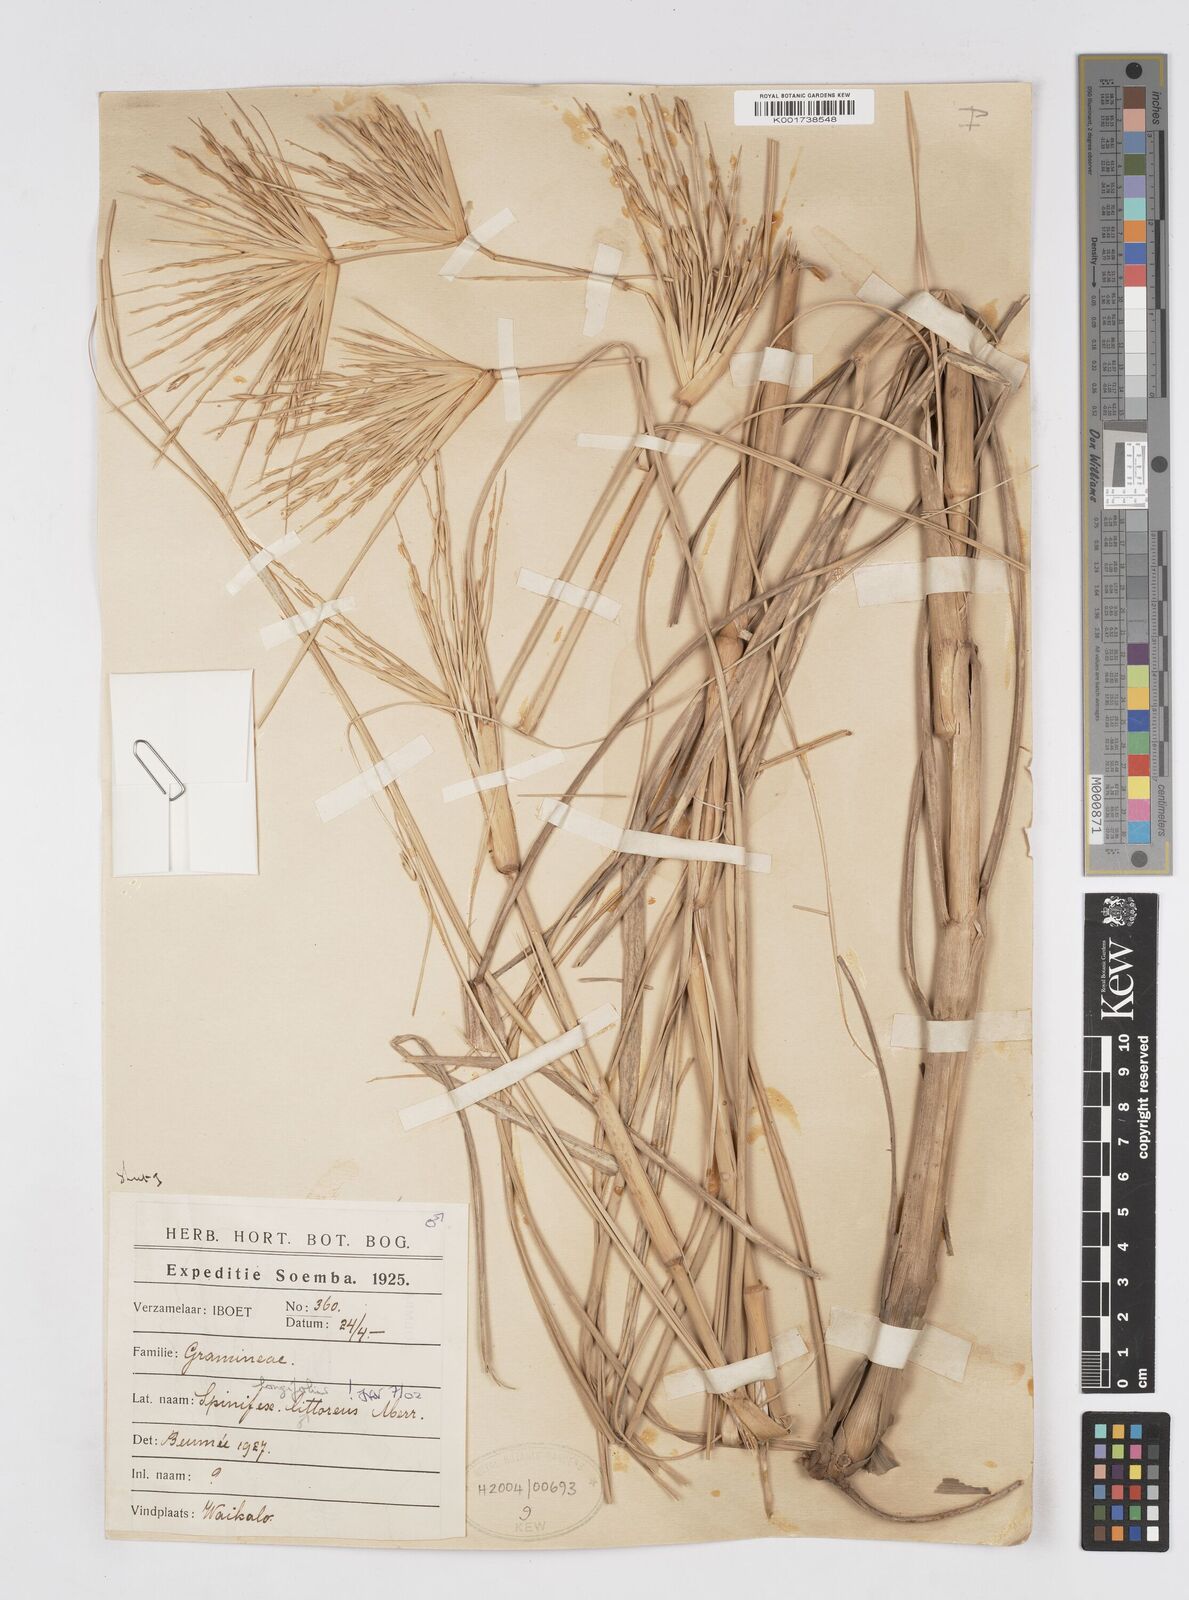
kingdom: Plantae
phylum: Tracheophyta
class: Liliopsida
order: Poales
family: Poaceae
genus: Spinifex
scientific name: Spinifex littoreus
